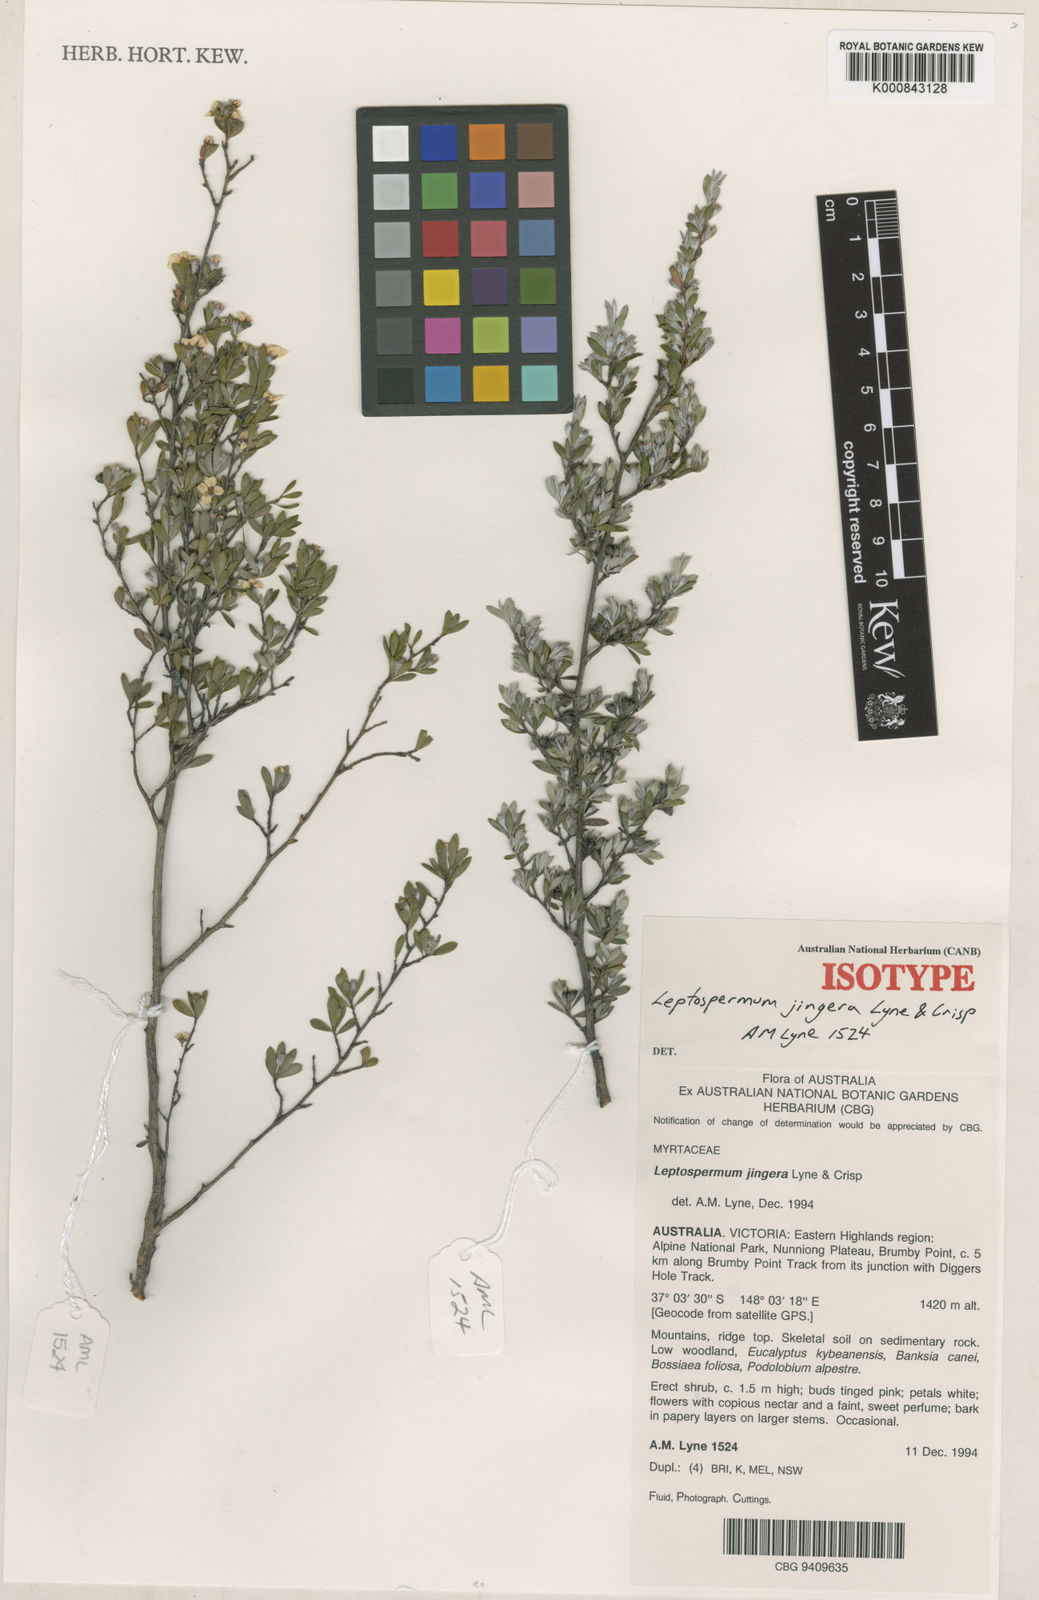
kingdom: Plantae
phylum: Tracheophyta
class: Magnoliopsida
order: Myrtales
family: Myrtaceae
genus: Leptospermum
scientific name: Leptospermum jingera
